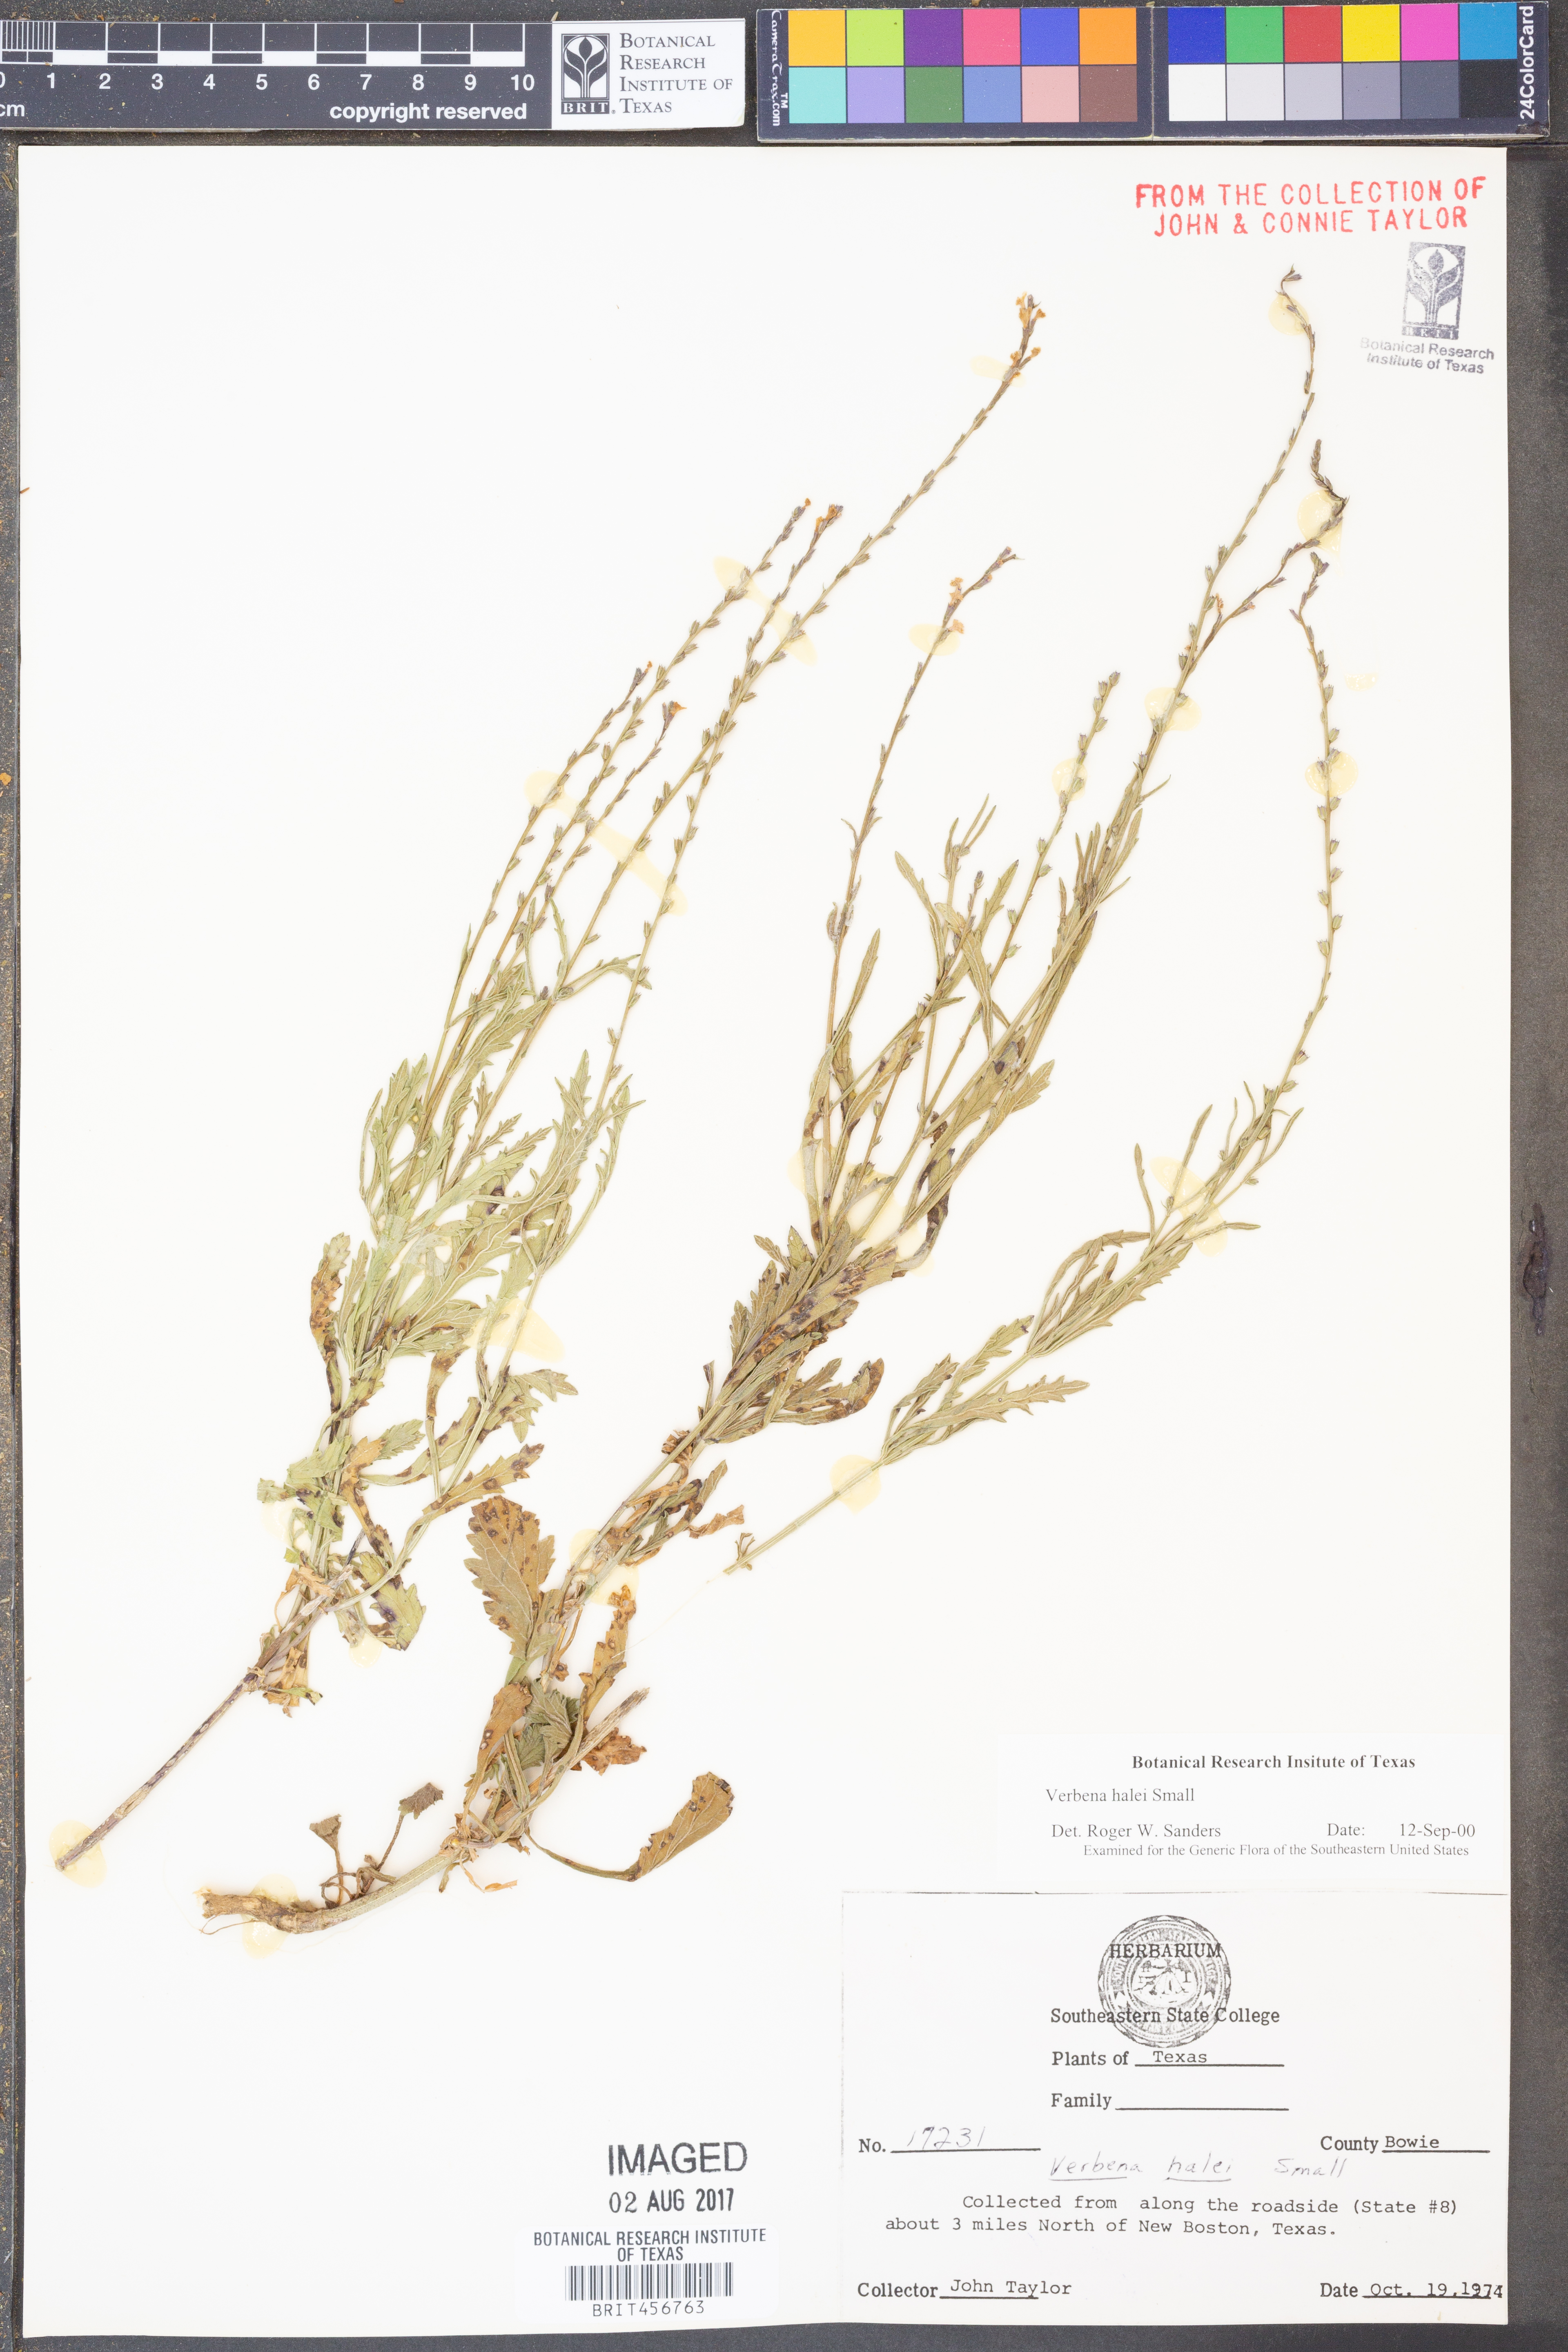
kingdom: Plantae
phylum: Tracheophyta
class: Magnoliopsida
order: Lamiales
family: Verbenaceae
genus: Verbena
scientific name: Verbena halei
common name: Texas vervain
